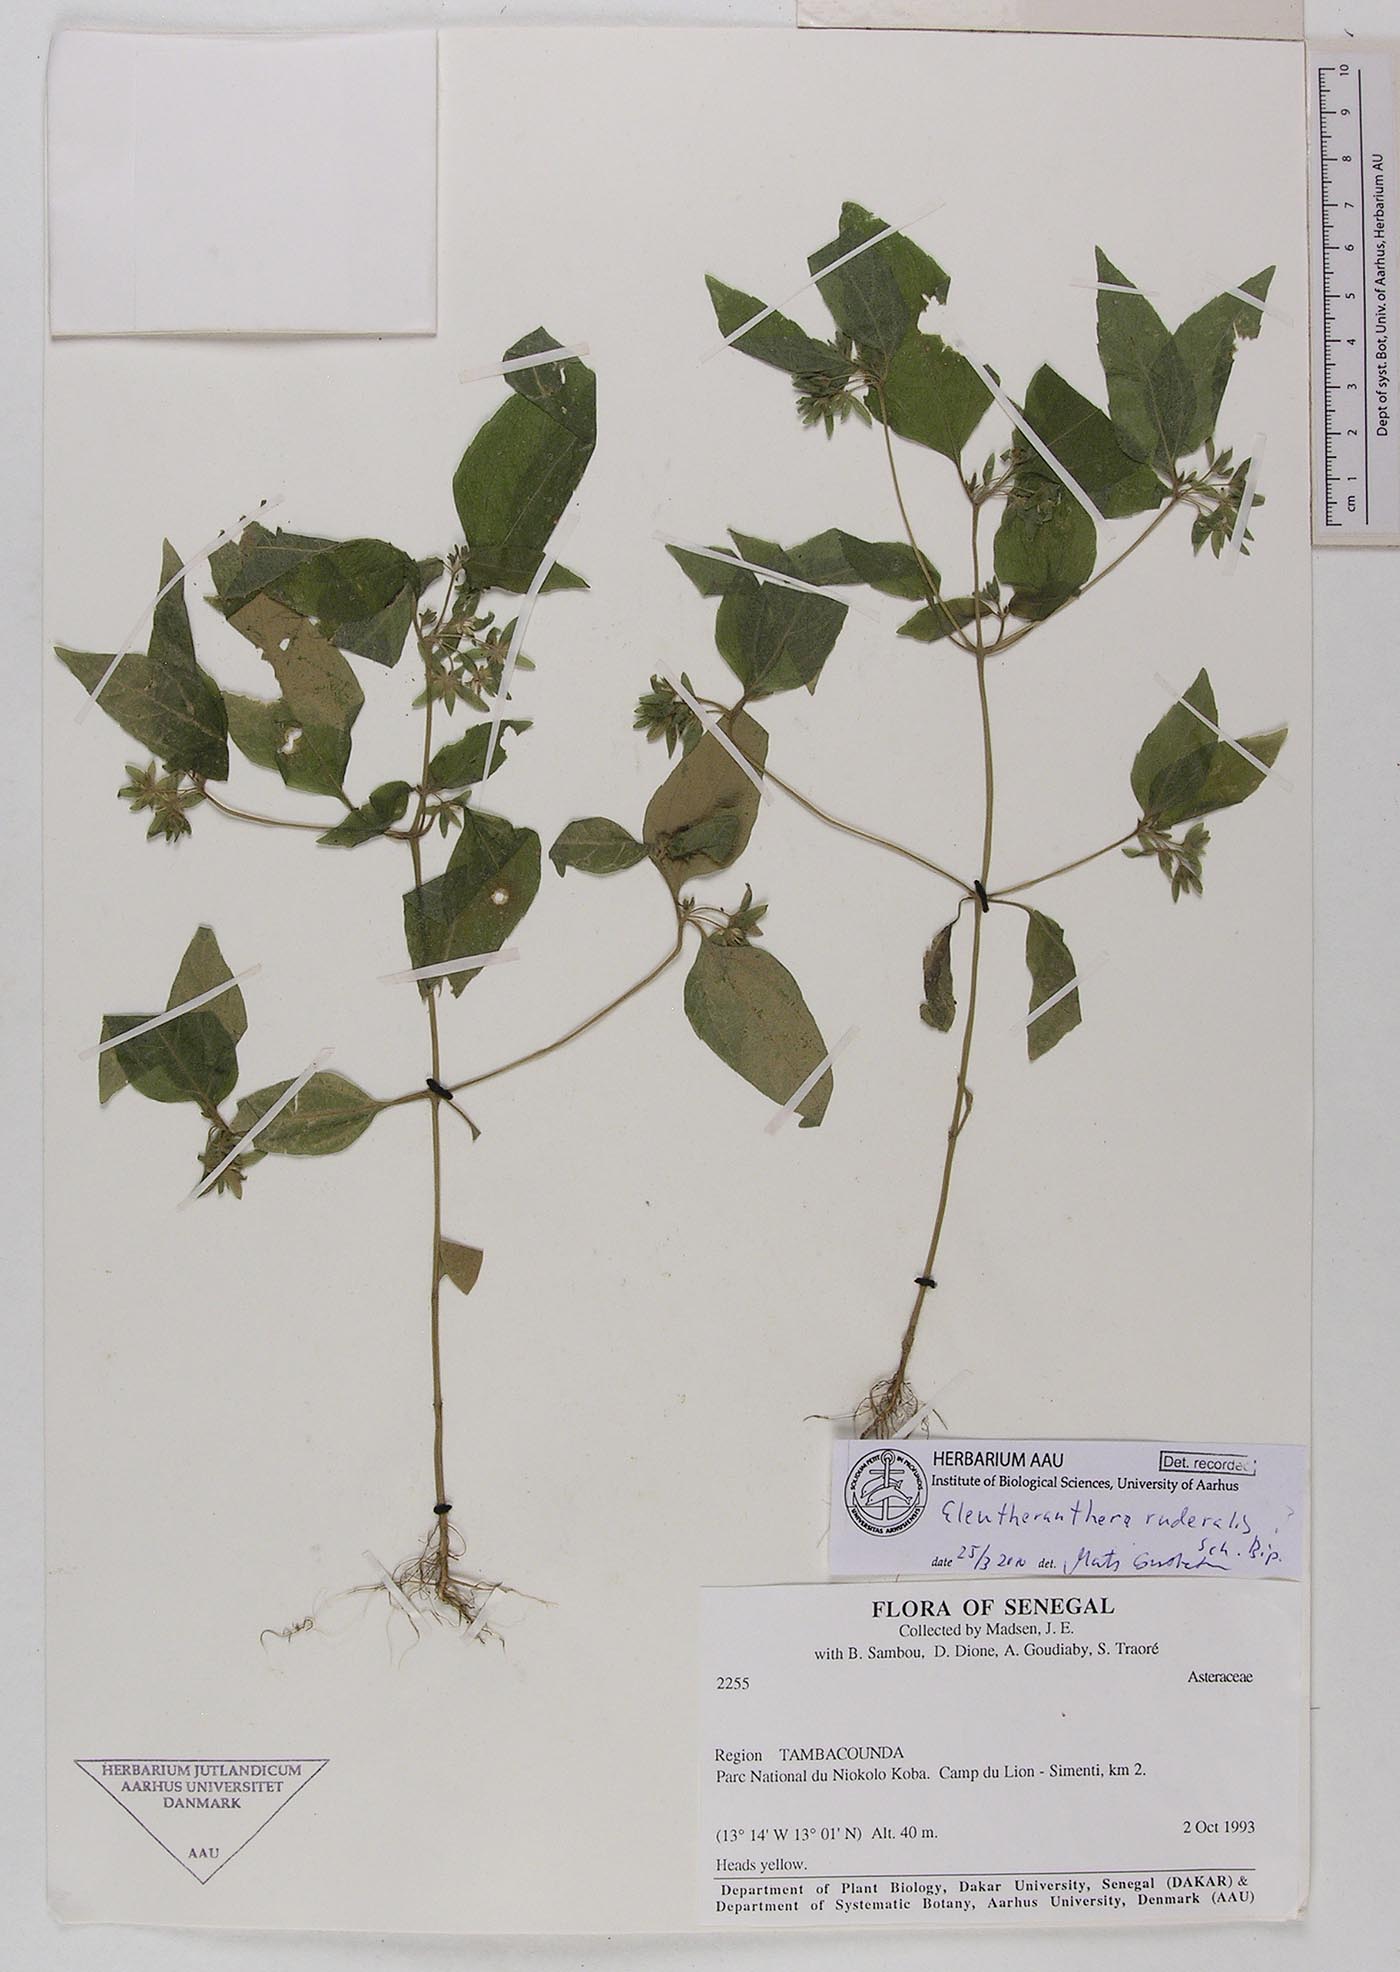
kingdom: Plantae
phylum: Tracheophyta
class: Magnoliopsida
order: Asterales
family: Asteraceae
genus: Eleutheranthera
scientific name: Eleutheranthera ruderalis
